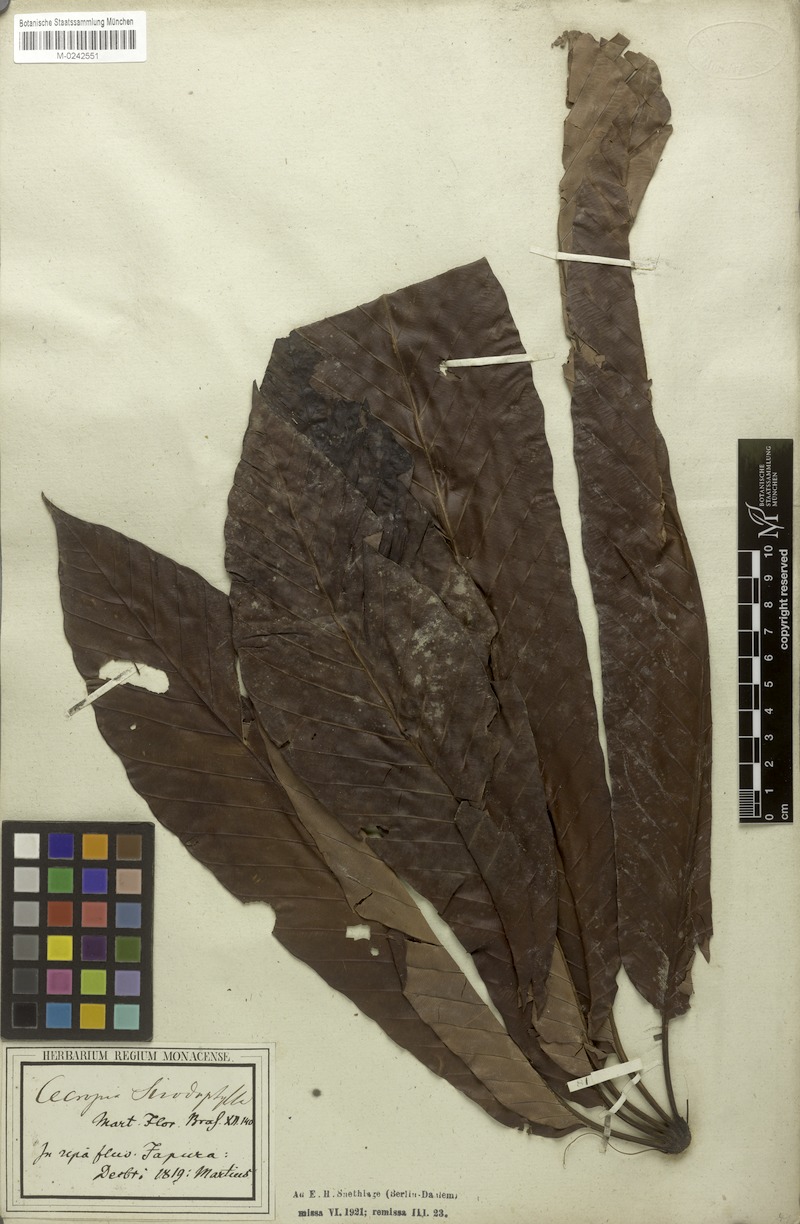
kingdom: Plantae
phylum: Tracheophyta
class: Magnoliopsida
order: Rosales
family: Urticaceae
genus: Cecropia
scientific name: Cecropia sciadophylla
